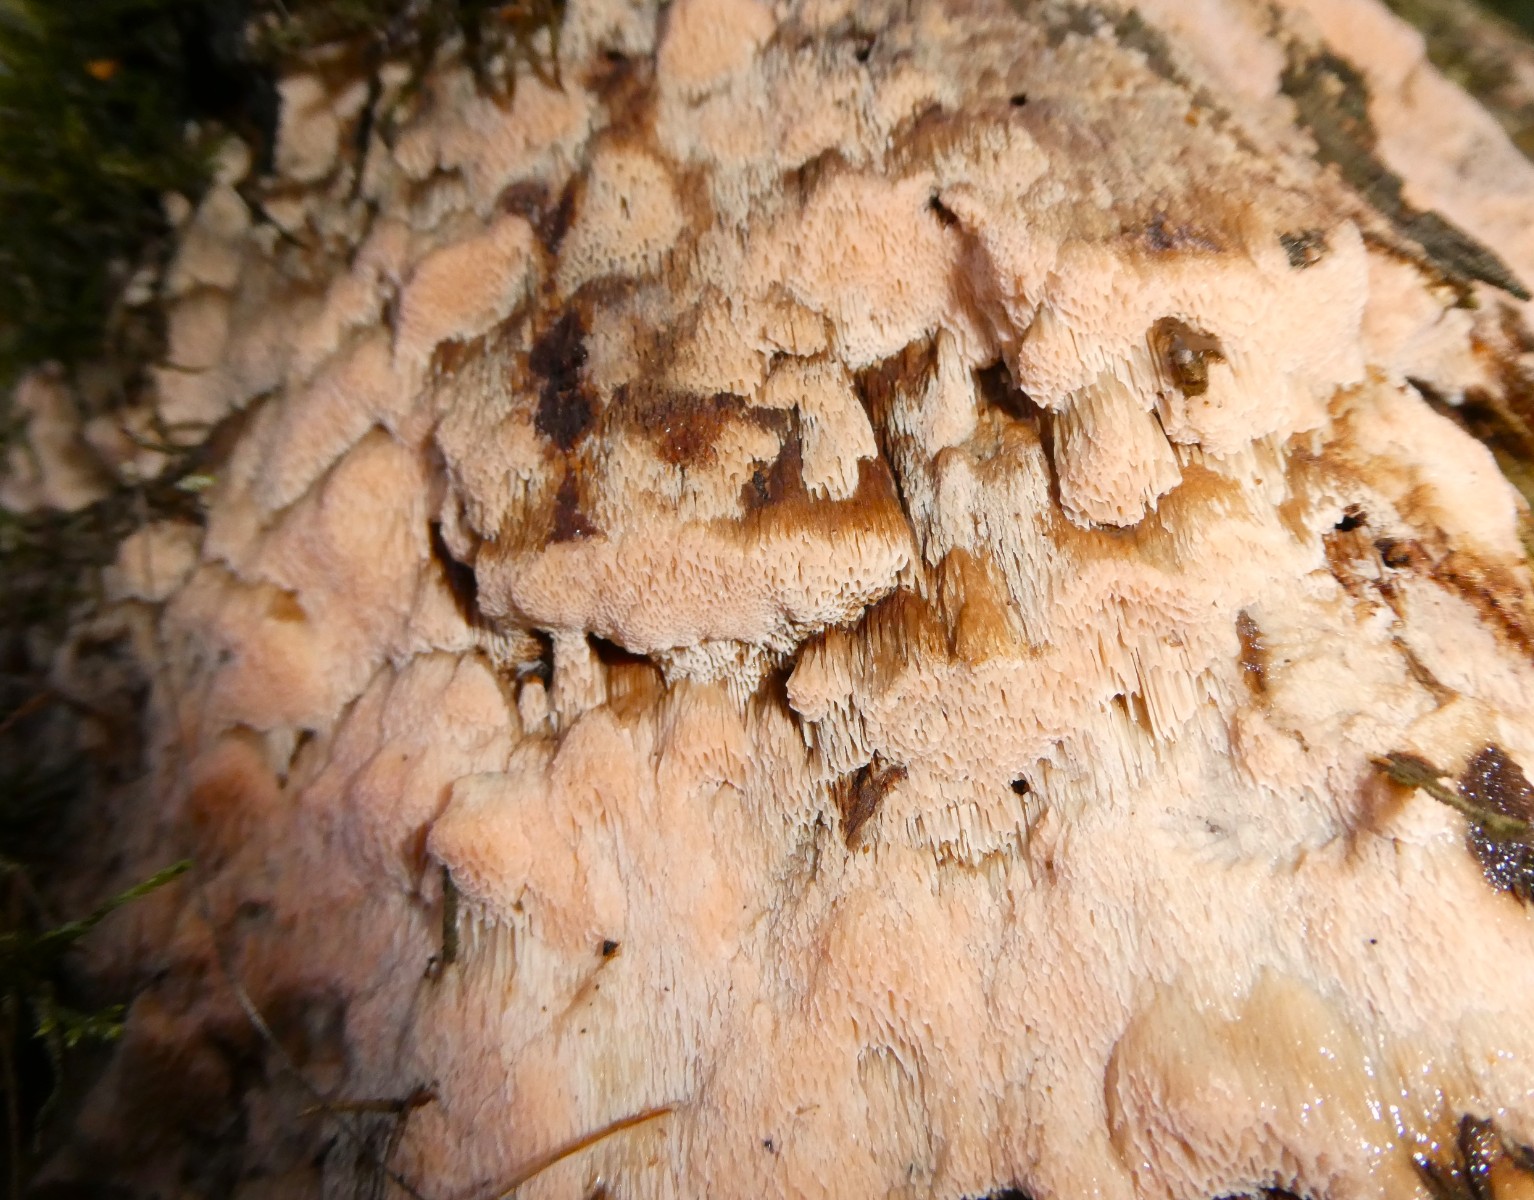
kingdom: Fungi
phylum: Basidiomycota
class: Agaricomycetes
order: Polyporales
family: Polyporaceae
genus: Rhodonia
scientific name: Rhodonia placenta
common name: rosaporesvamp
